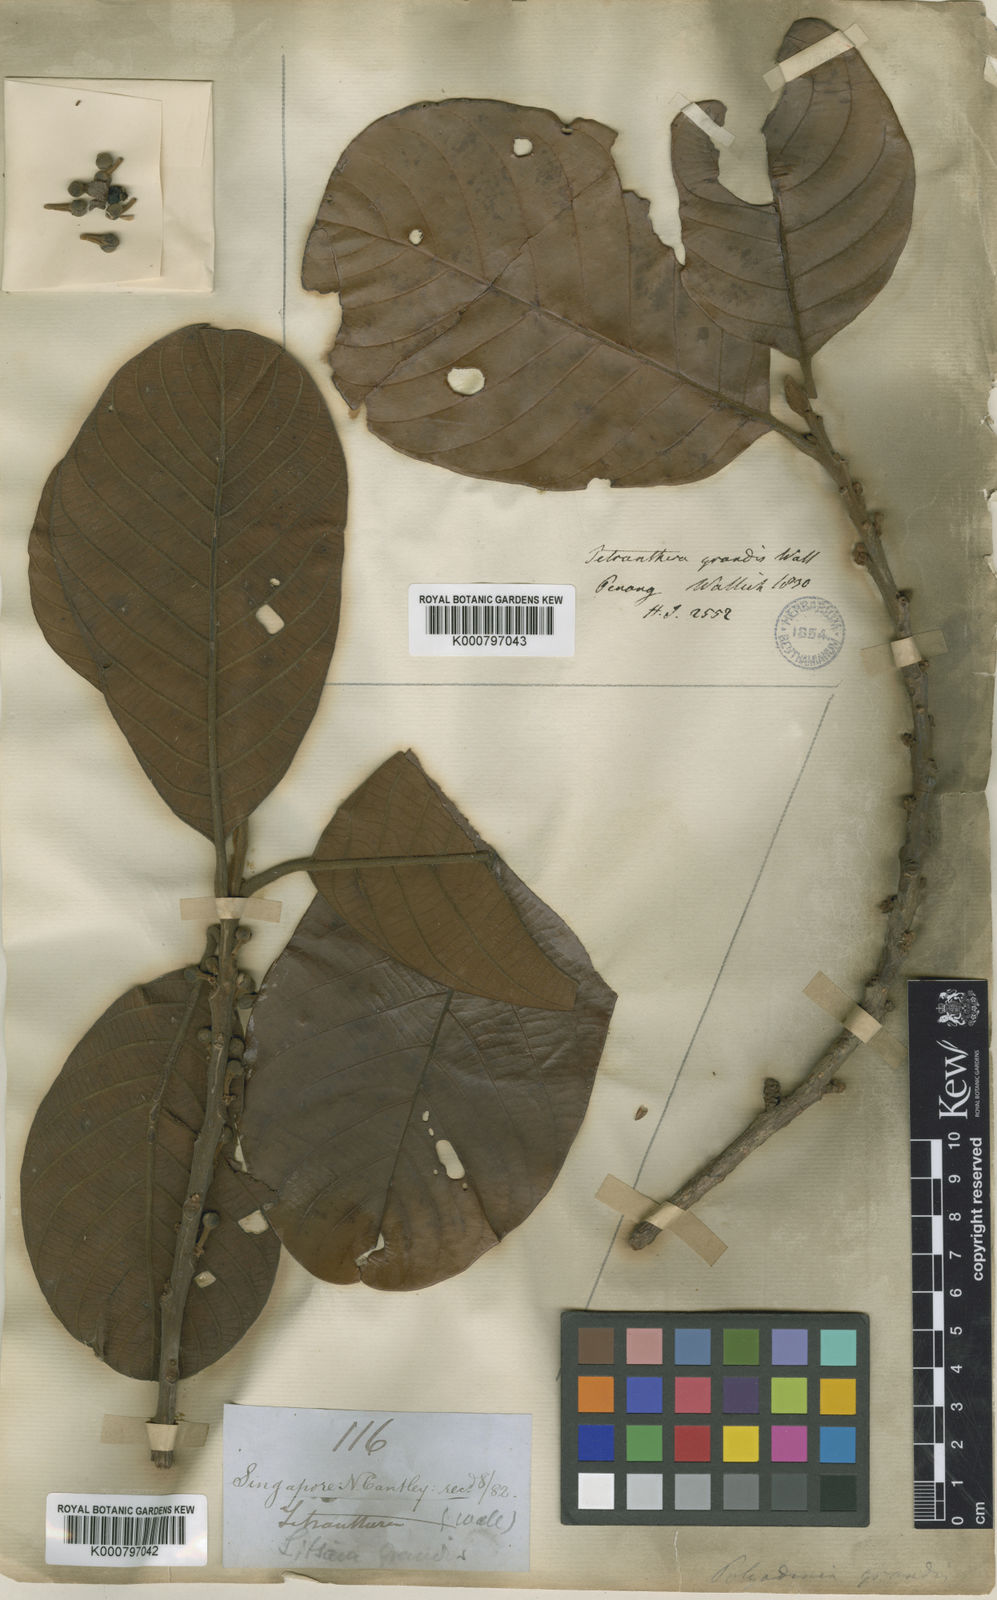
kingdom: Plantae
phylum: Tracheophyta
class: Magnoliopsida
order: Laurales
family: Lauraceae
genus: Litsea
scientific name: Litsea grandis
